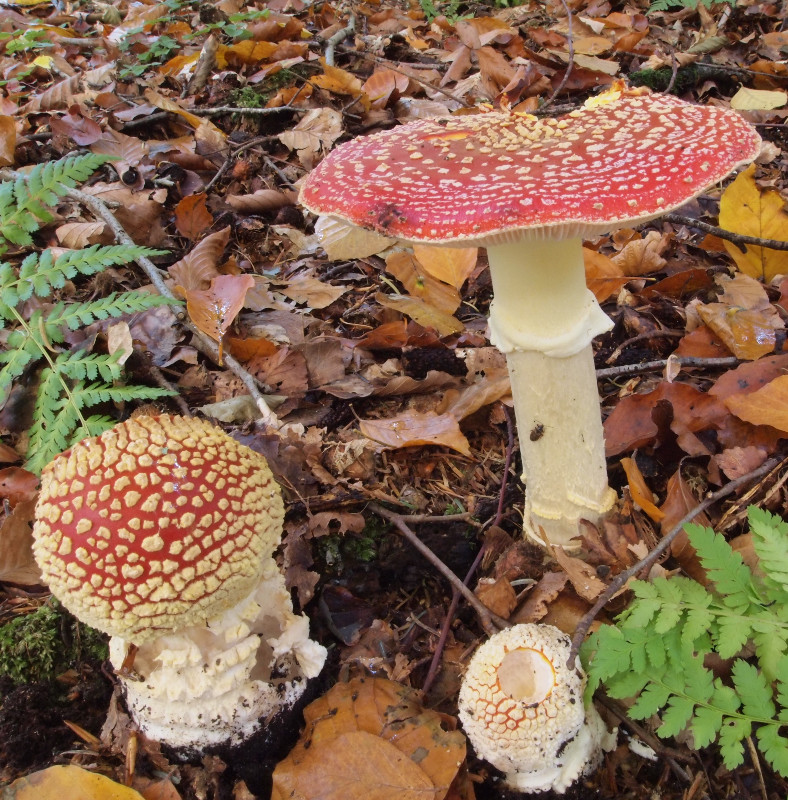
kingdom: Fungi
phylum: Basidiomycota
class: Agaricomycetes
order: Agaricales
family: Amanitaceae
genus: Amanita
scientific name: Amanita muscaria
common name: rød fluesvamp
